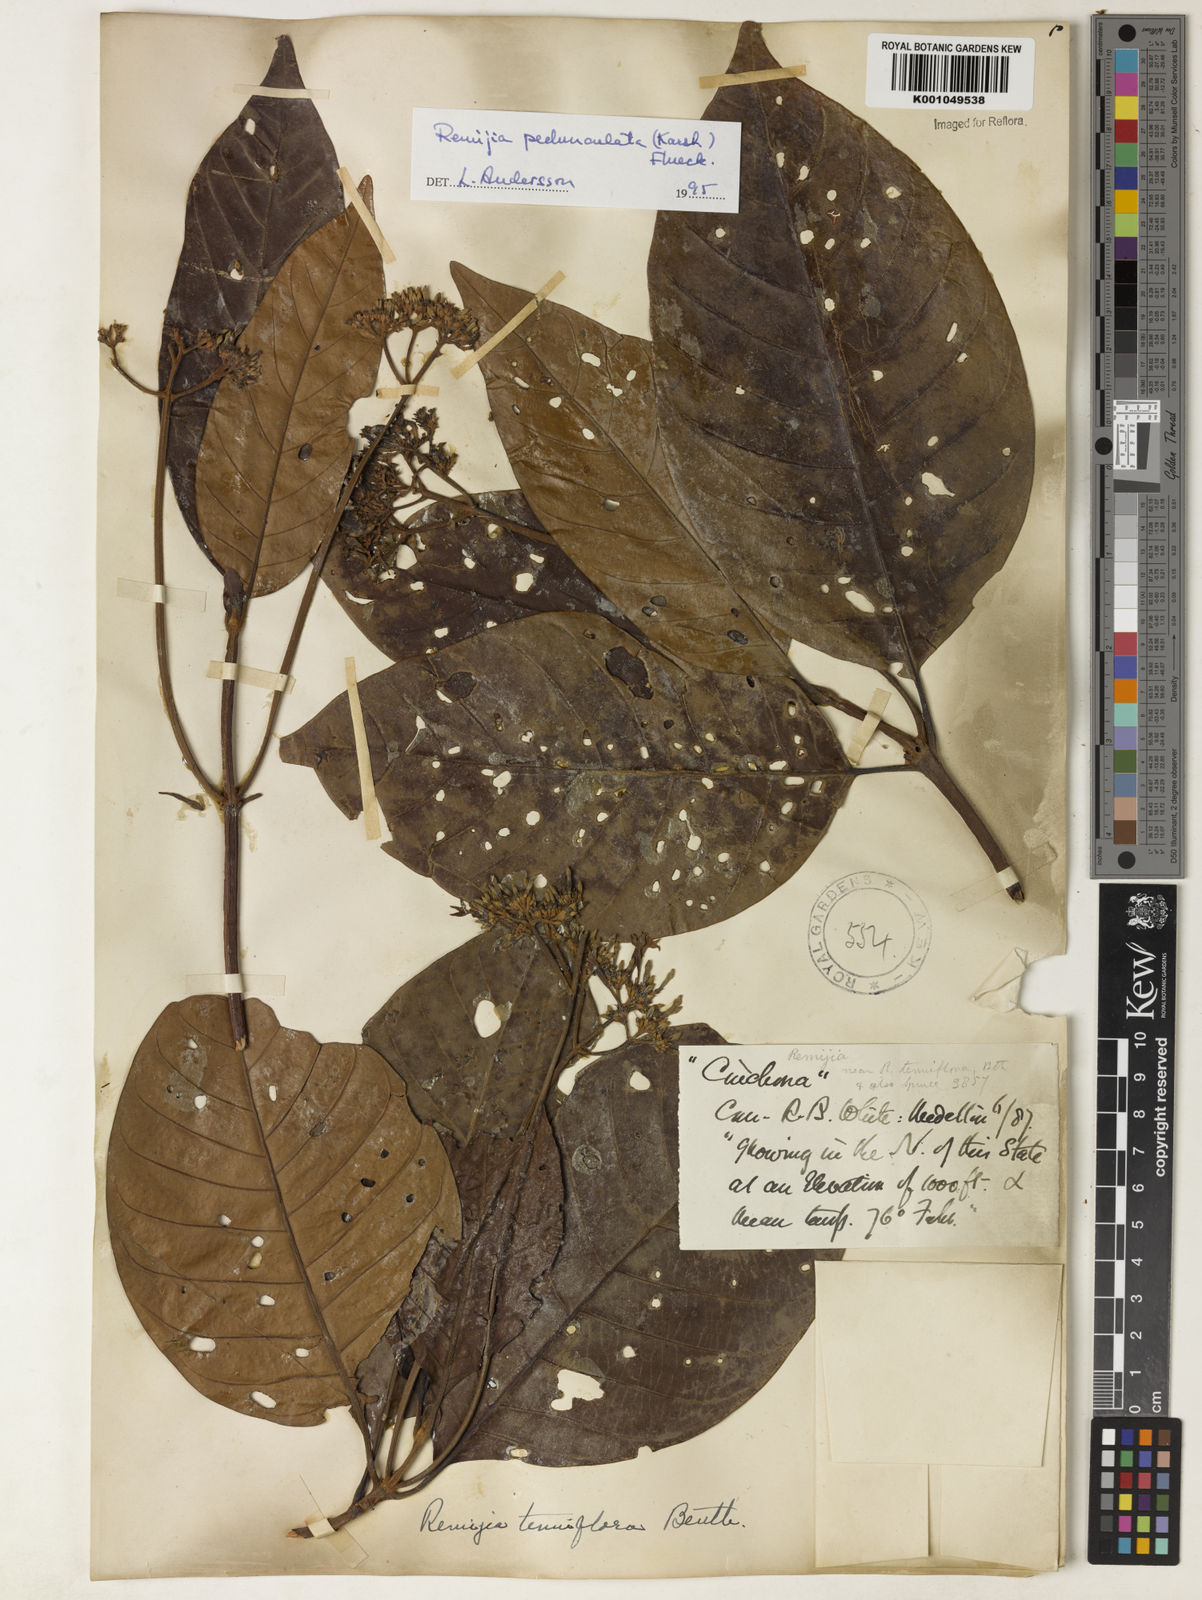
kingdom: Plantae
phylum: Tracheophyta
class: Magnoliopsida
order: Gentianales
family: Rubiaceae
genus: Ciliosemina
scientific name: Ciliosemina pedunculata
